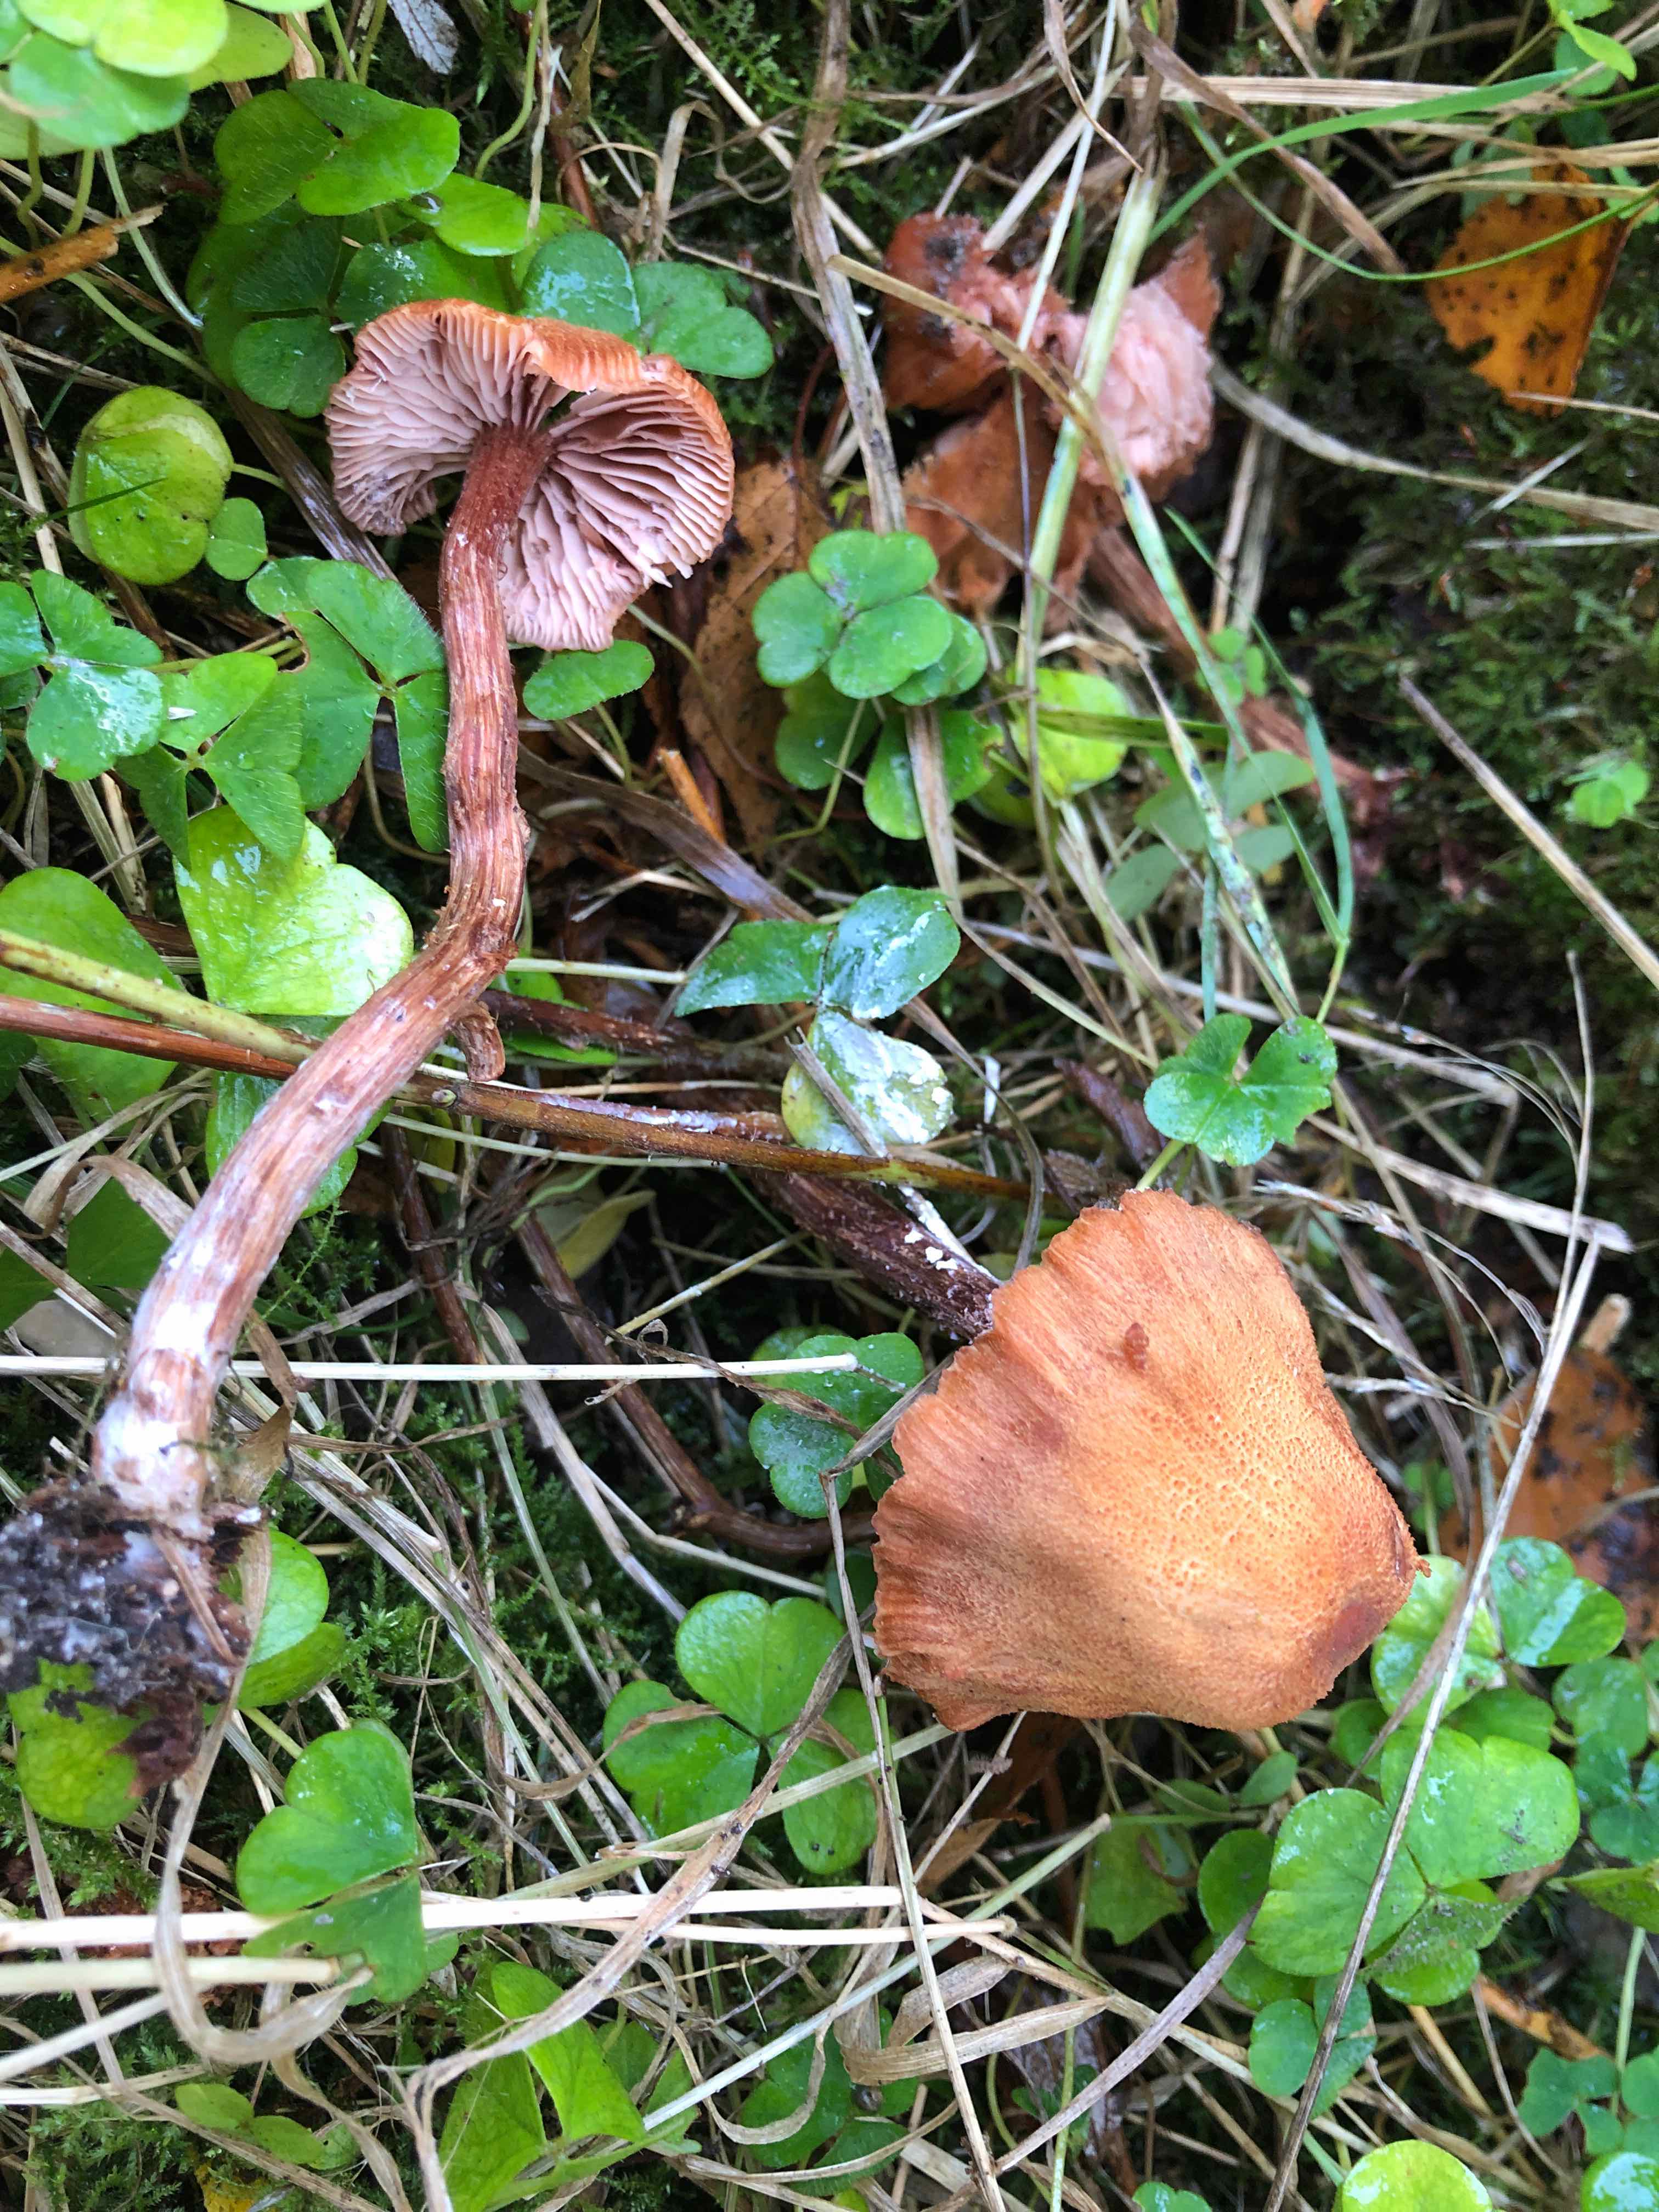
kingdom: Fungi
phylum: Basidiomycota
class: Agaricomycetes
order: Agaricales
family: Hydnangiaceae
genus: Laccaria
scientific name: Laccaria proxima
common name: stor ametysthat
